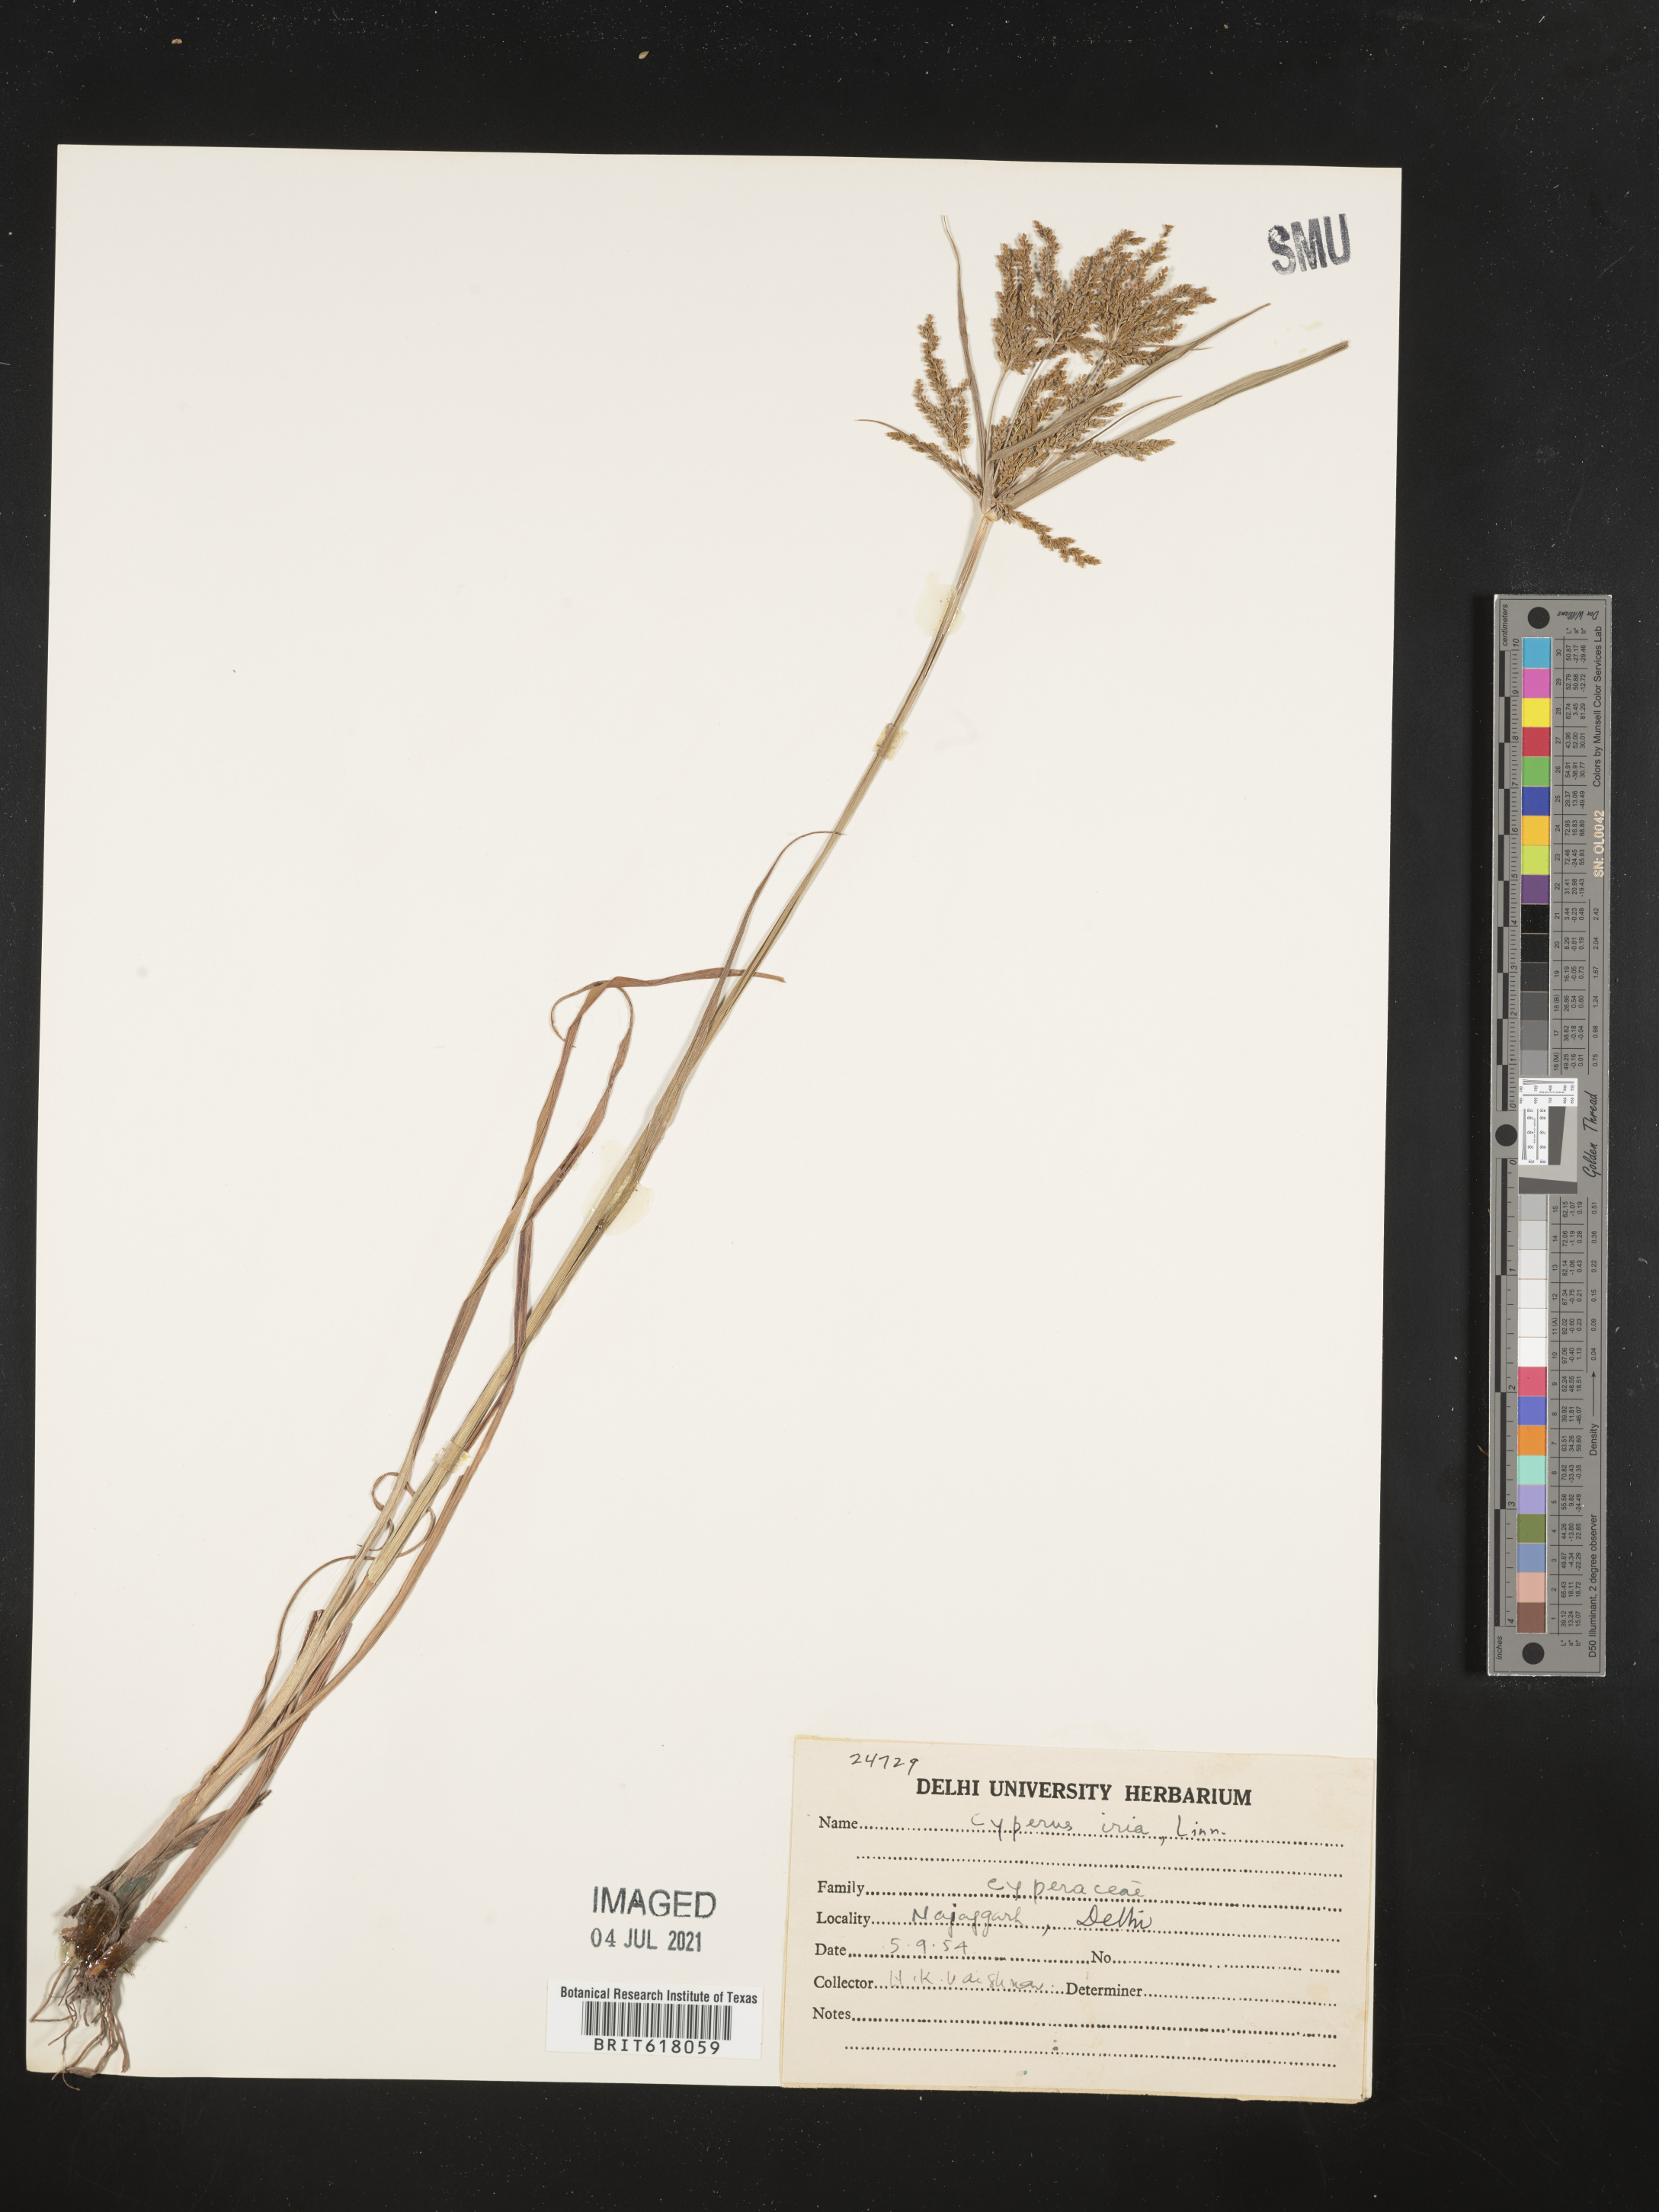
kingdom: Plantae
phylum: Tracheophyta
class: Liliopsida
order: Poales
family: Cyperaceae
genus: Cyperus
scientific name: Cyperus iria
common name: Ricefield flatsedge
